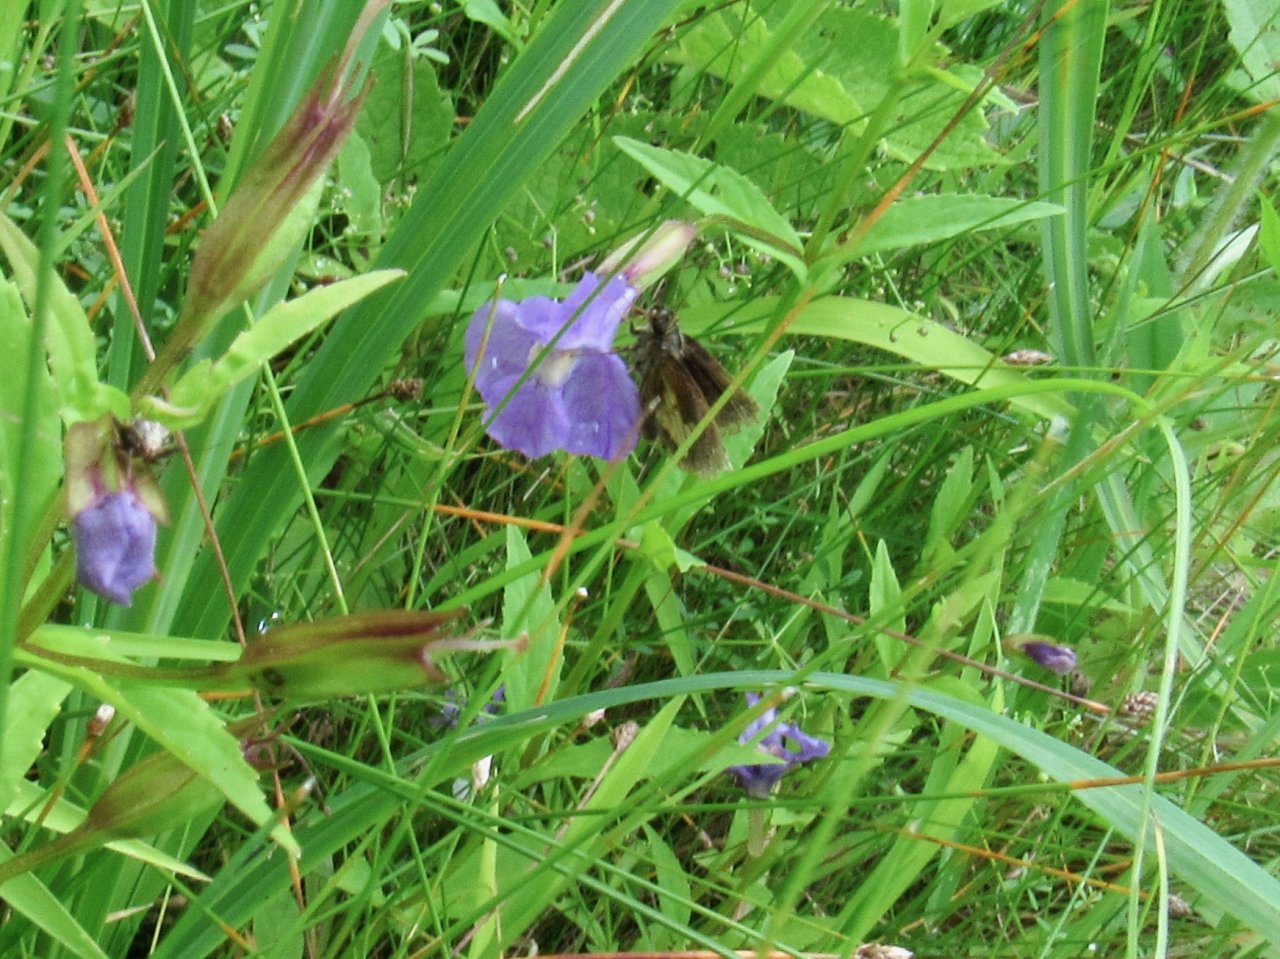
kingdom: Animalia
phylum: Arthropoda
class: Insecta
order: Lepidoptera
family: Hesperiidae
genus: Poanes
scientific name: Poanes massasoit
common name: Mulberry Wing
